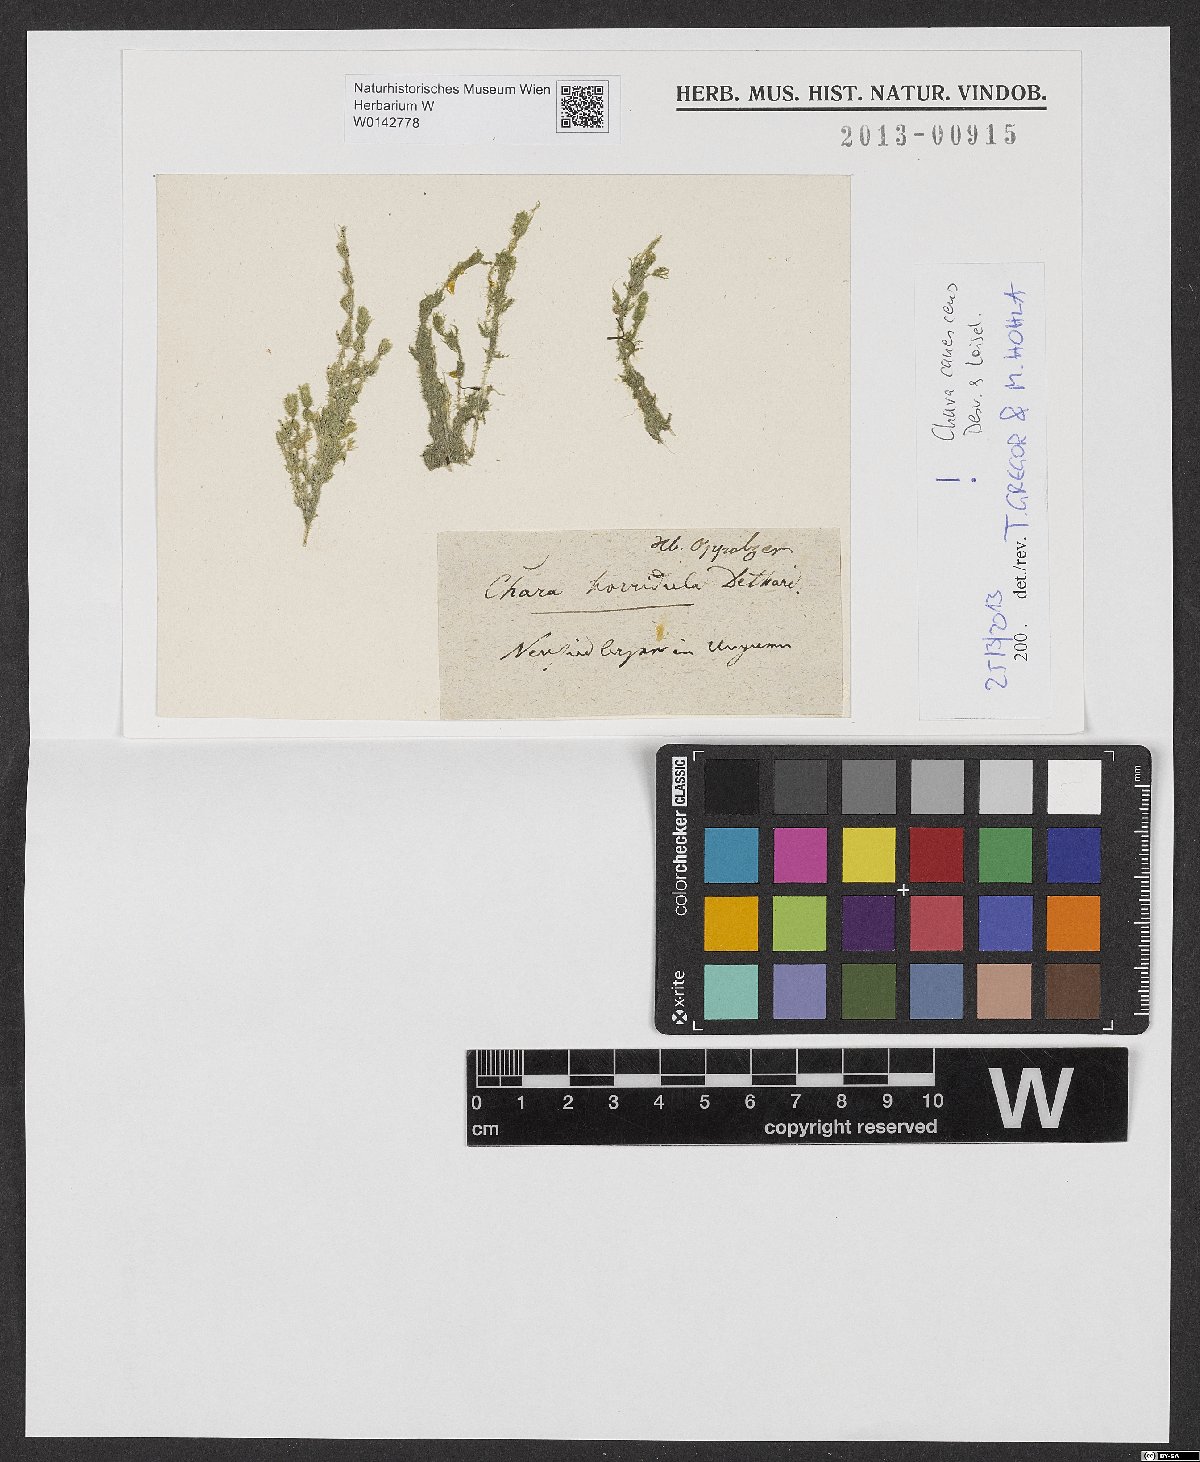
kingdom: Plantae
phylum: Charophyta
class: Charophyceae
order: Charales
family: Characeae
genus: Chara
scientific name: Chara canescens
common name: Bearded stonewort
